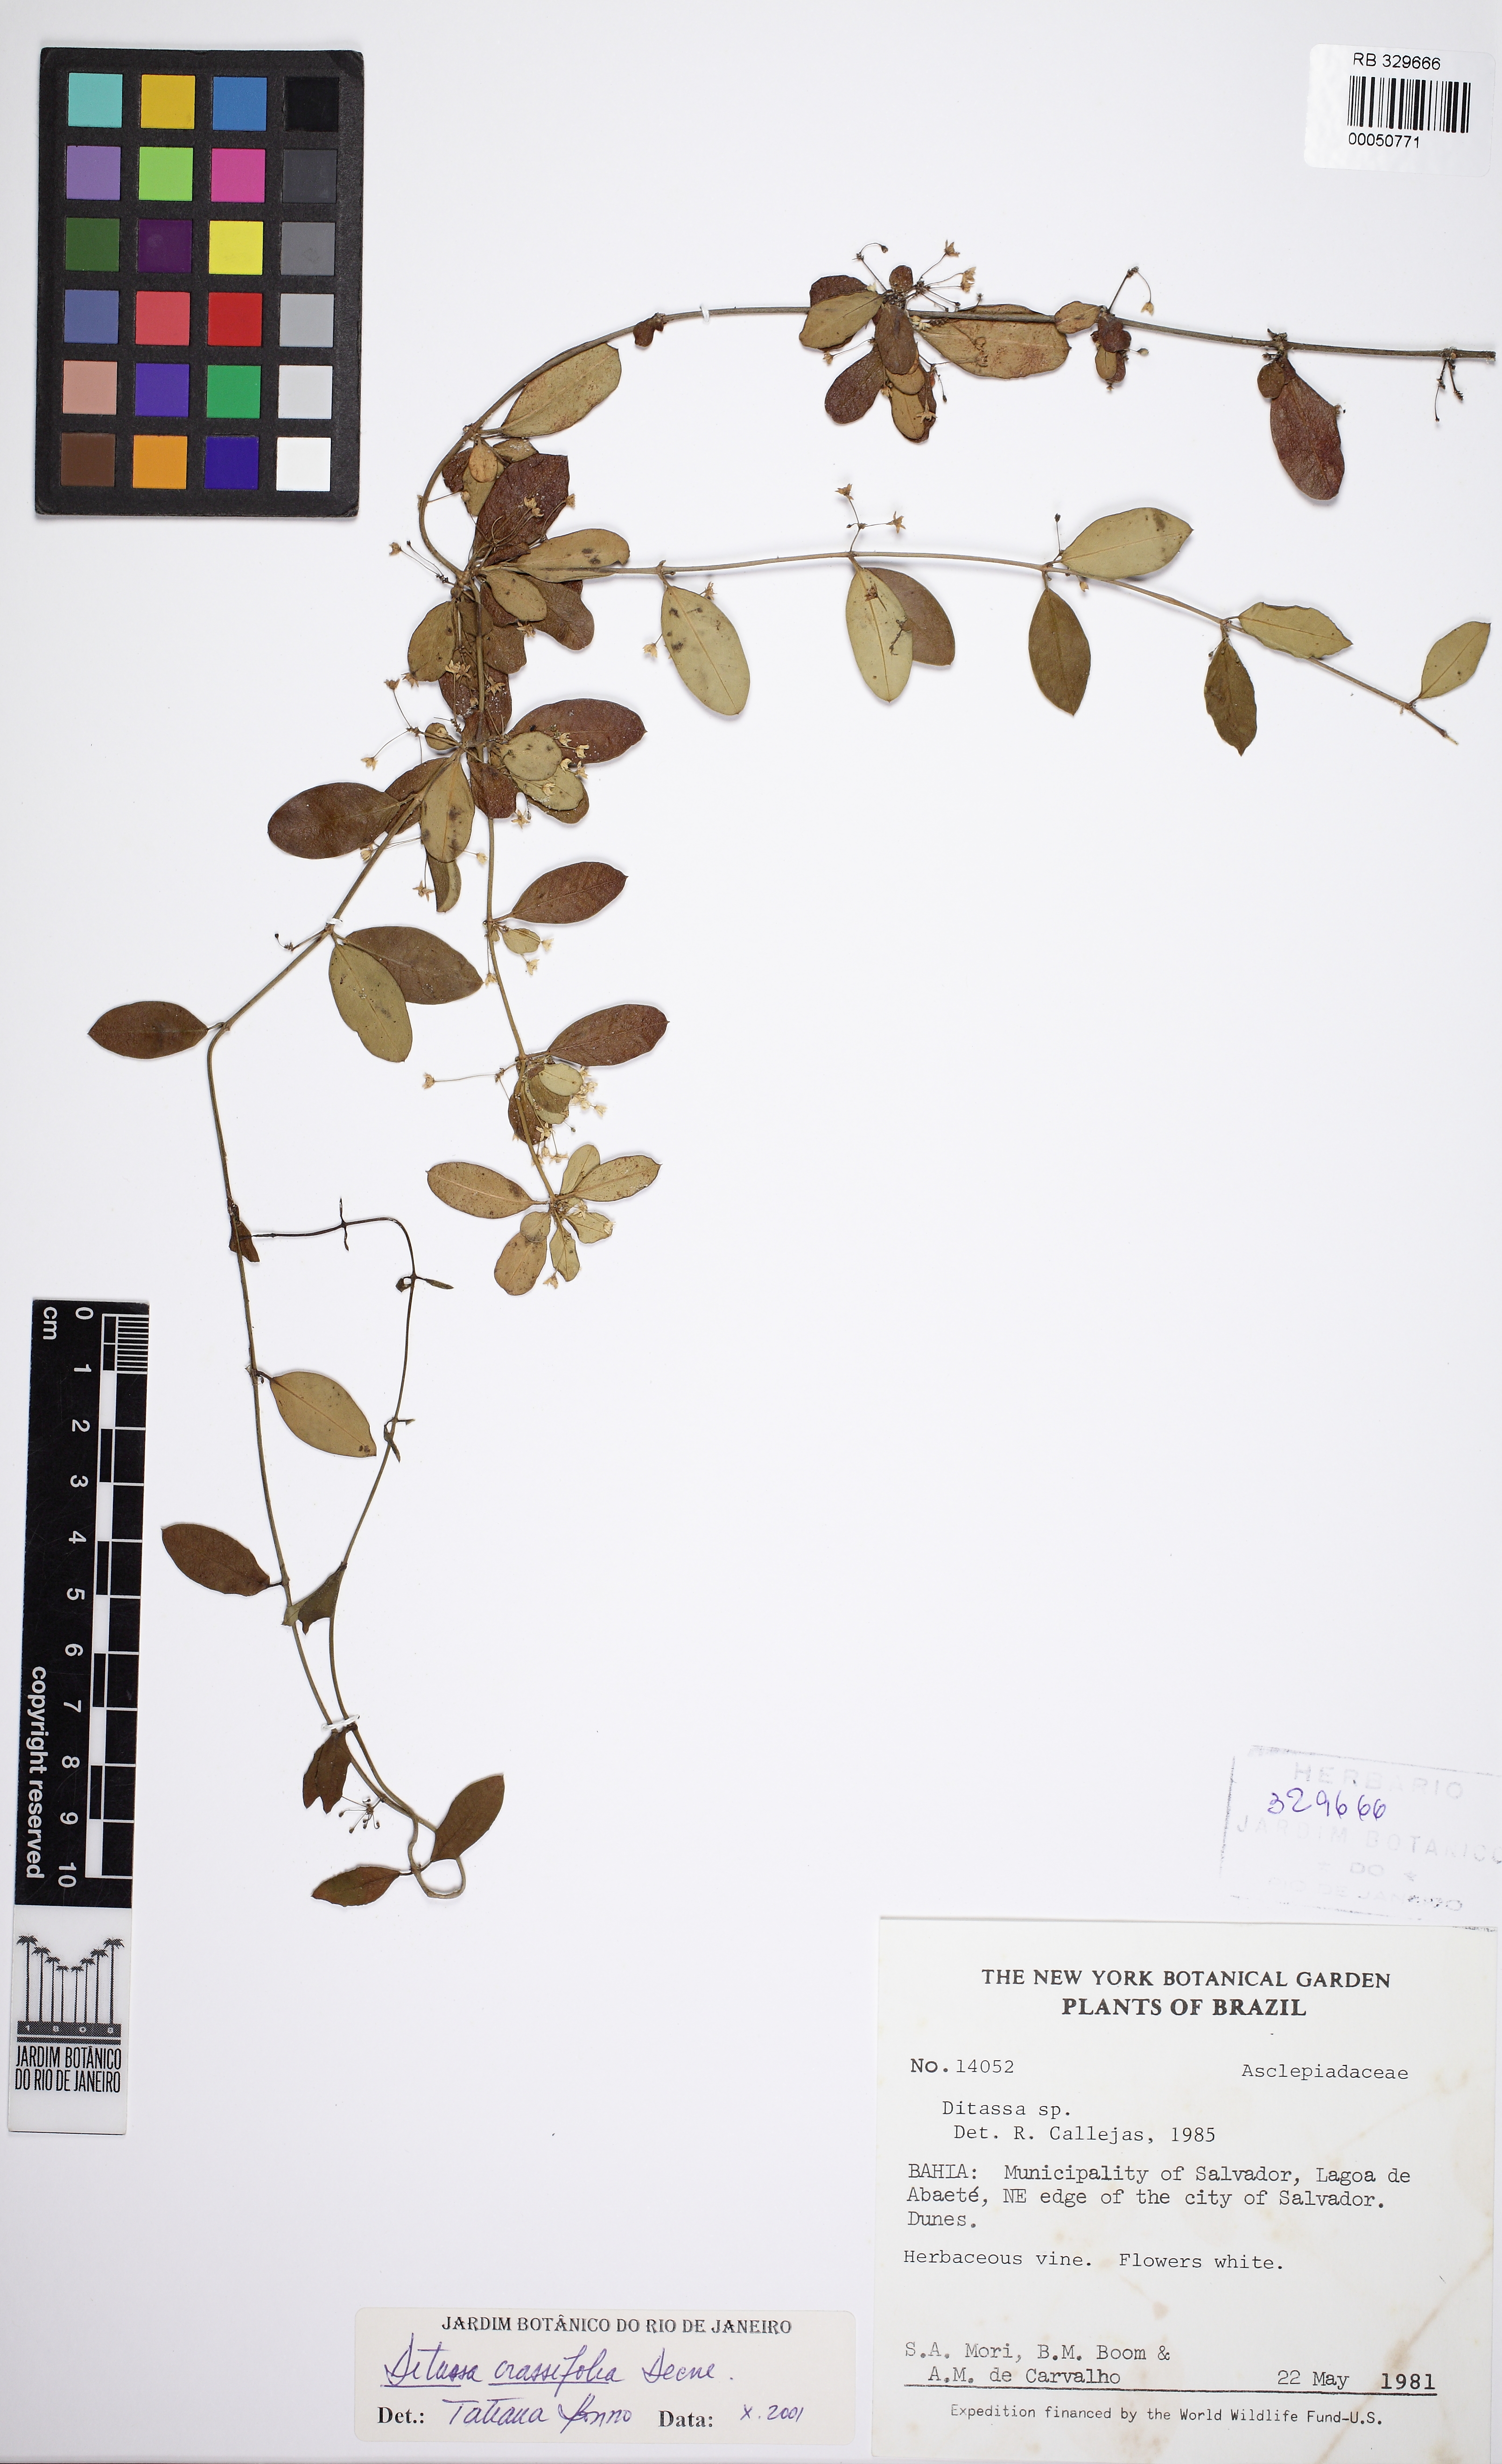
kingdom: Plantae
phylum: Tracheophyta
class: Magnoliopsida
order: Gentianales
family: Apocynaceae
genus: Ditassa
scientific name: Ditassa crassifolia
